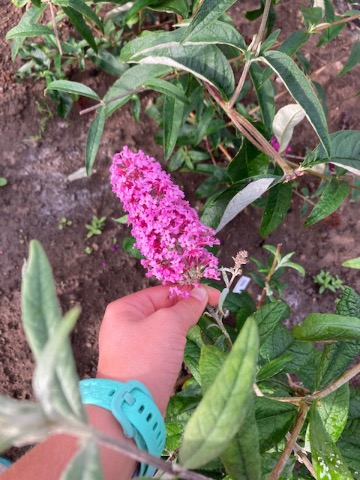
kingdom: Plantae
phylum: Tracheophyta
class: Magnoliopsida
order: Lamiales
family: Scrophulariaceae
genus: Buddleja
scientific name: Buddleja davidii
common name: Sommerfuglebusk
